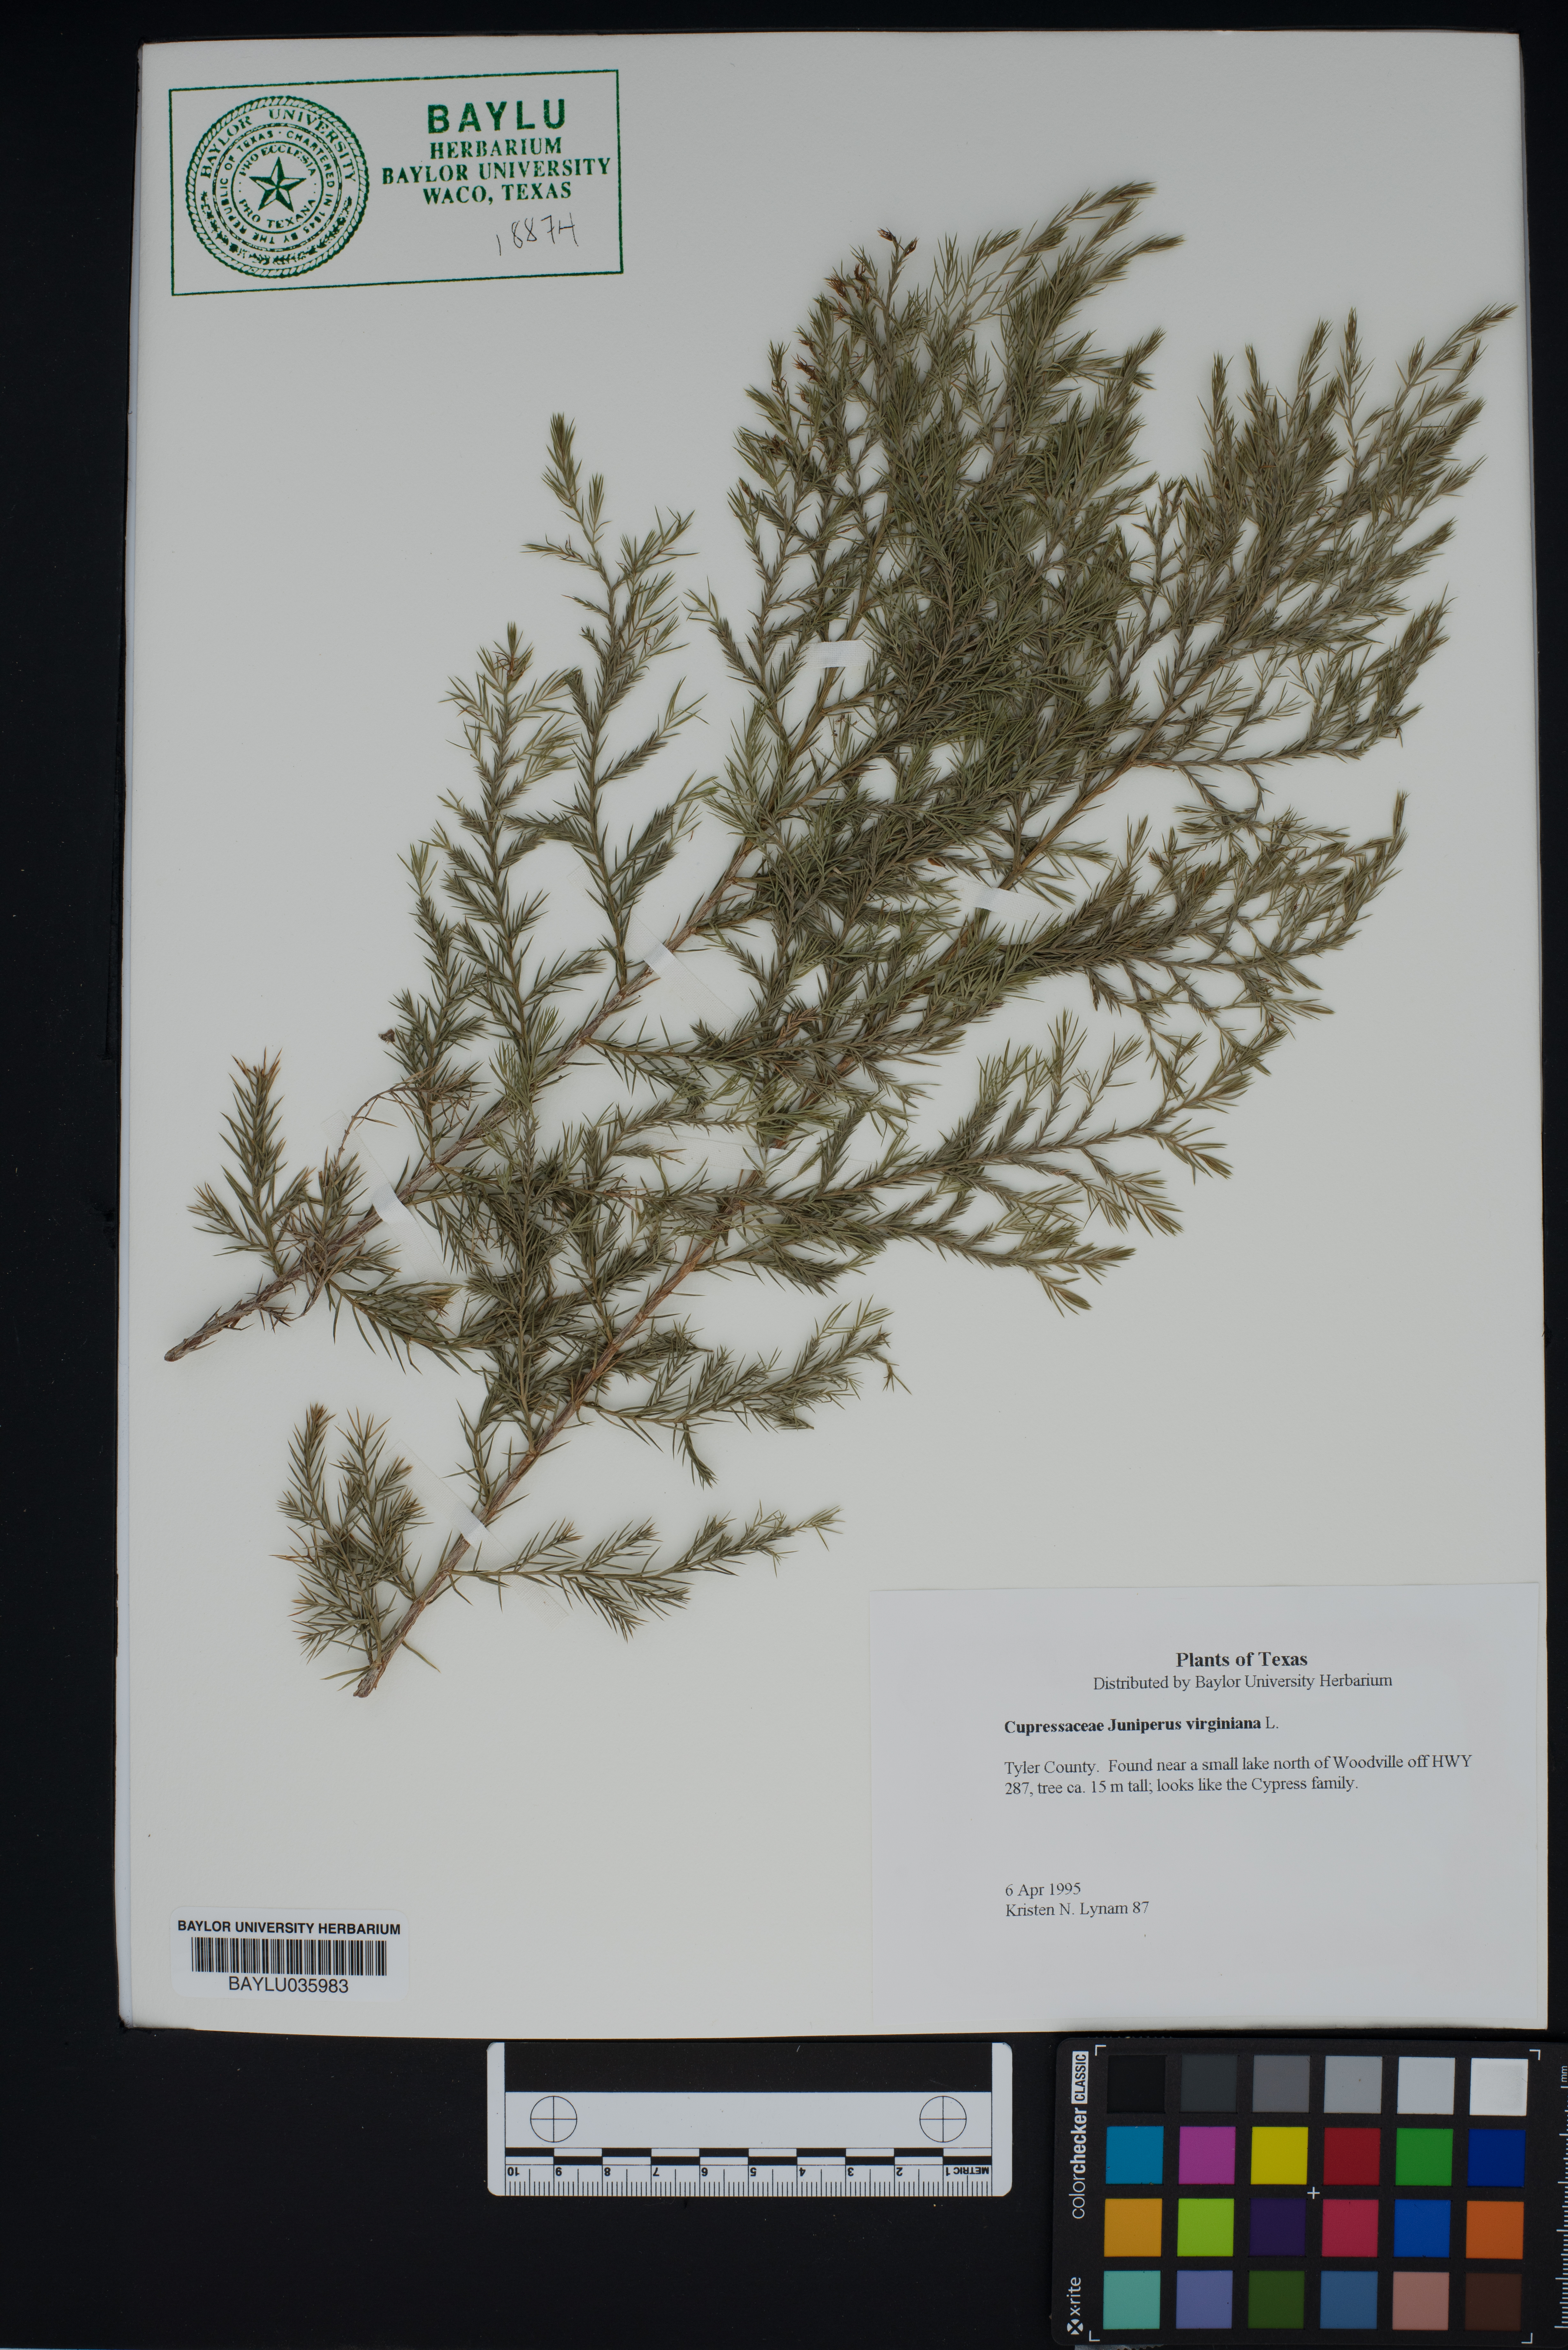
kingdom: Plantae
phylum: Tracheophyta
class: Pinopsida
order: Pinales
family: Cupressaceae
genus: Juniperus
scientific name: Juniperus virginiana
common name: Red juniper
